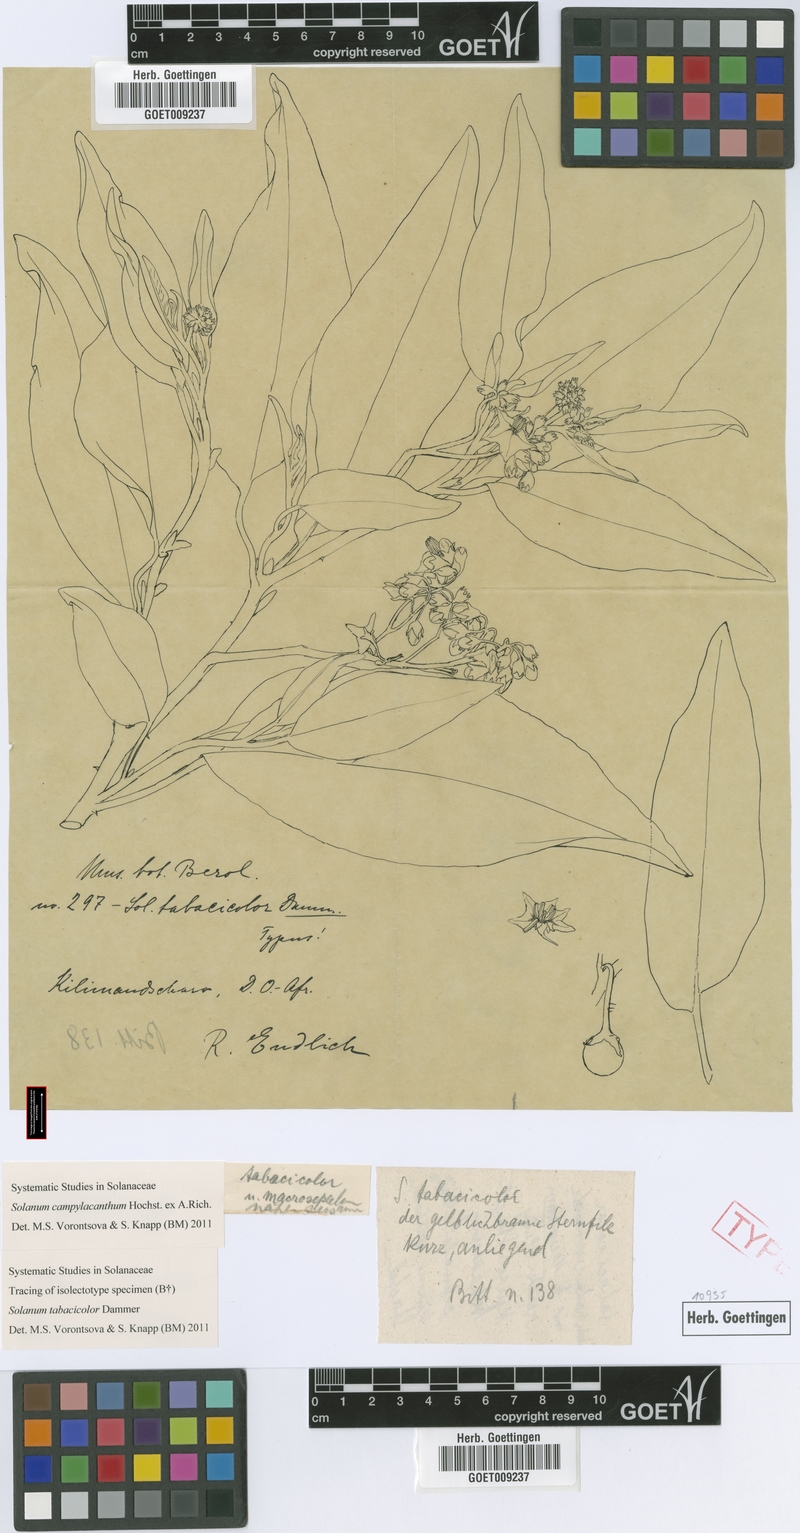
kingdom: Plantae
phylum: Tracheophyta
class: Magnoliopsida
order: Solanales
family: Solanaceae
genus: Solanum
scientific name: Solanum campylacanthum
